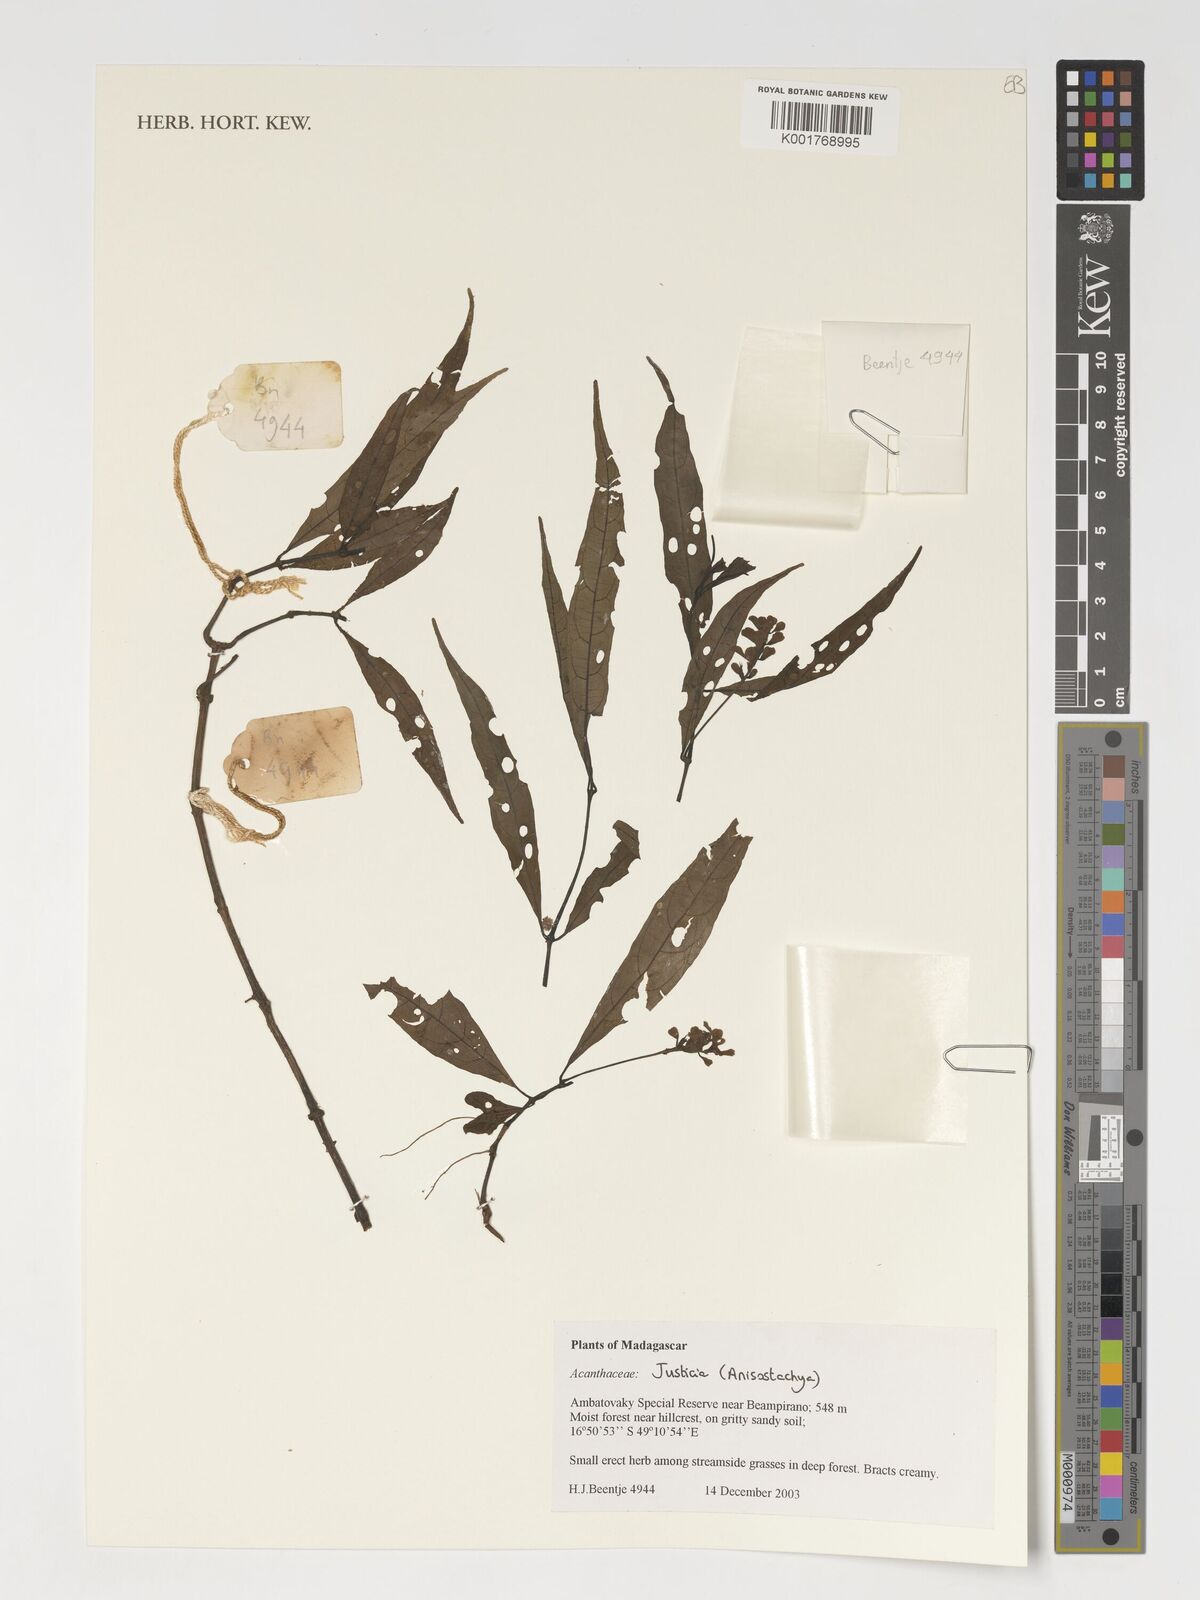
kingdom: Plantae
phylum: Tracheophyta
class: Magnoliopsida
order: Lamiales
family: Acanthaceae
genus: Justicia
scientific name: Justicia
